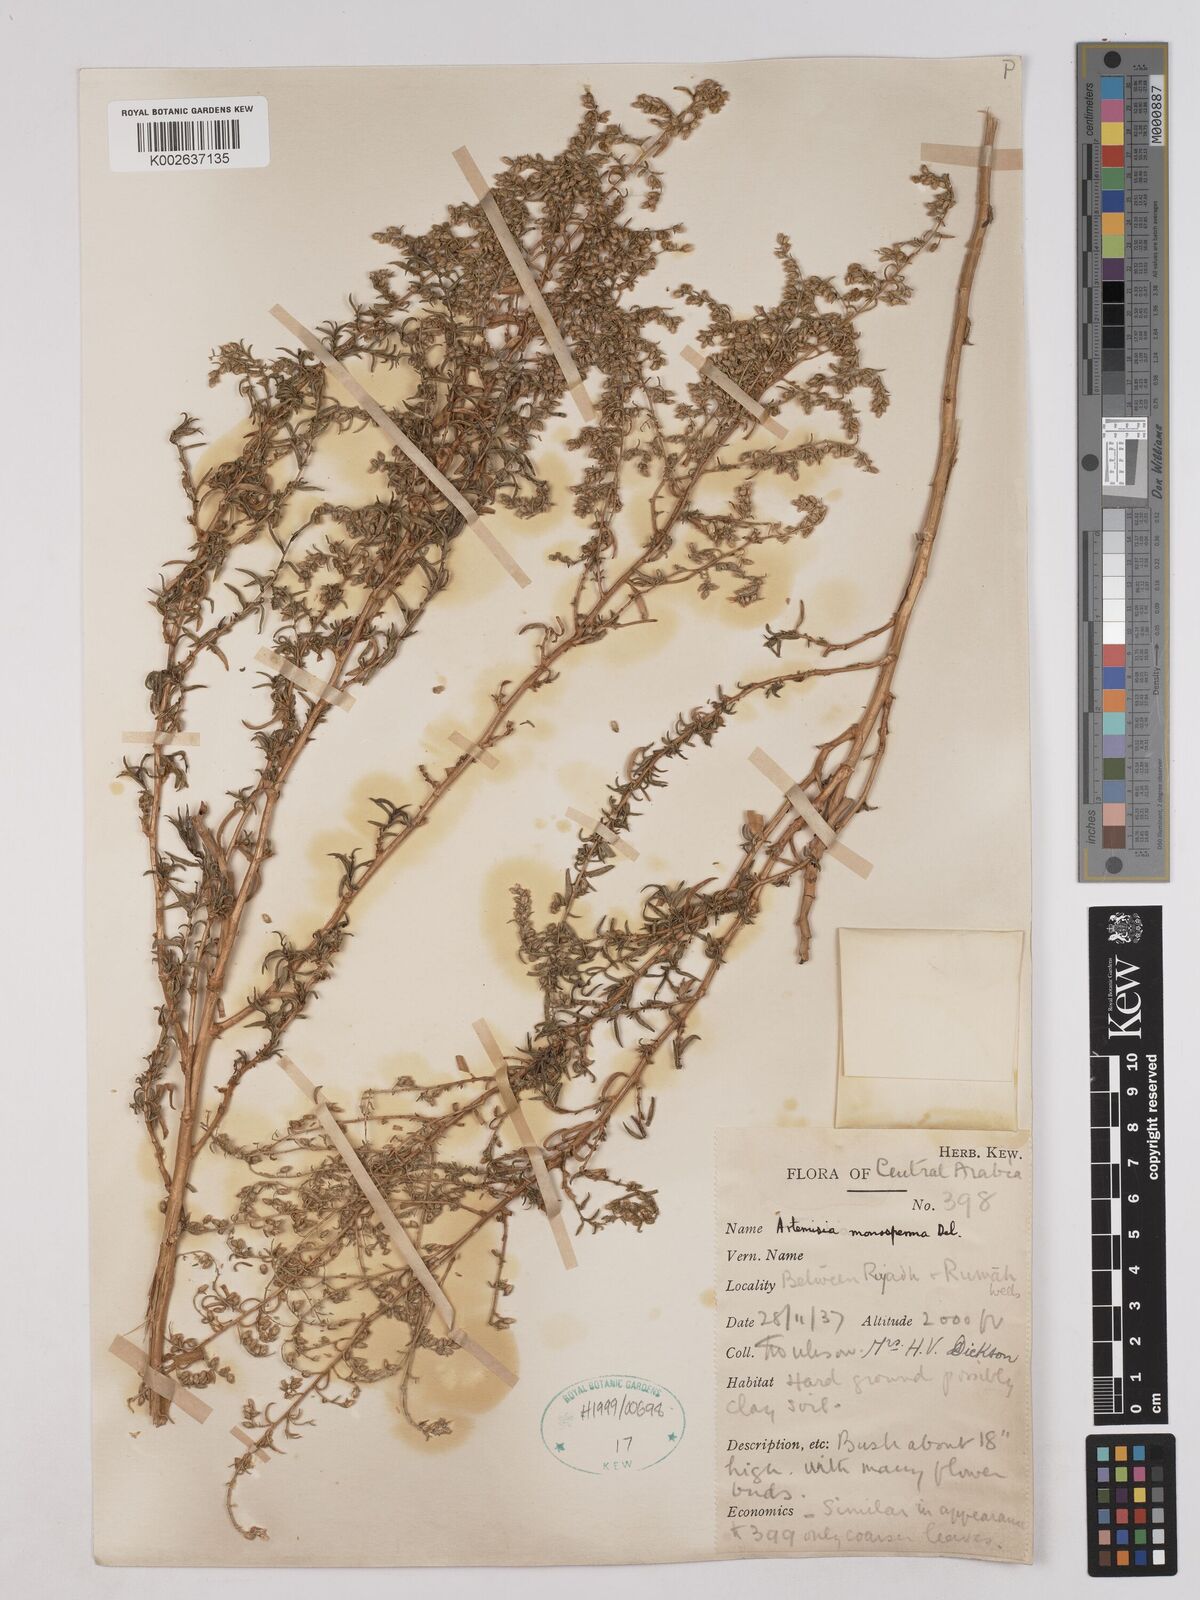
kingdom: Plantae
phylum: Tracheophyta
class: Magnoliopsida
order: Asterales
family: Asteraceae
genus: Artemisia
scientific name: Artemisia monosperma
